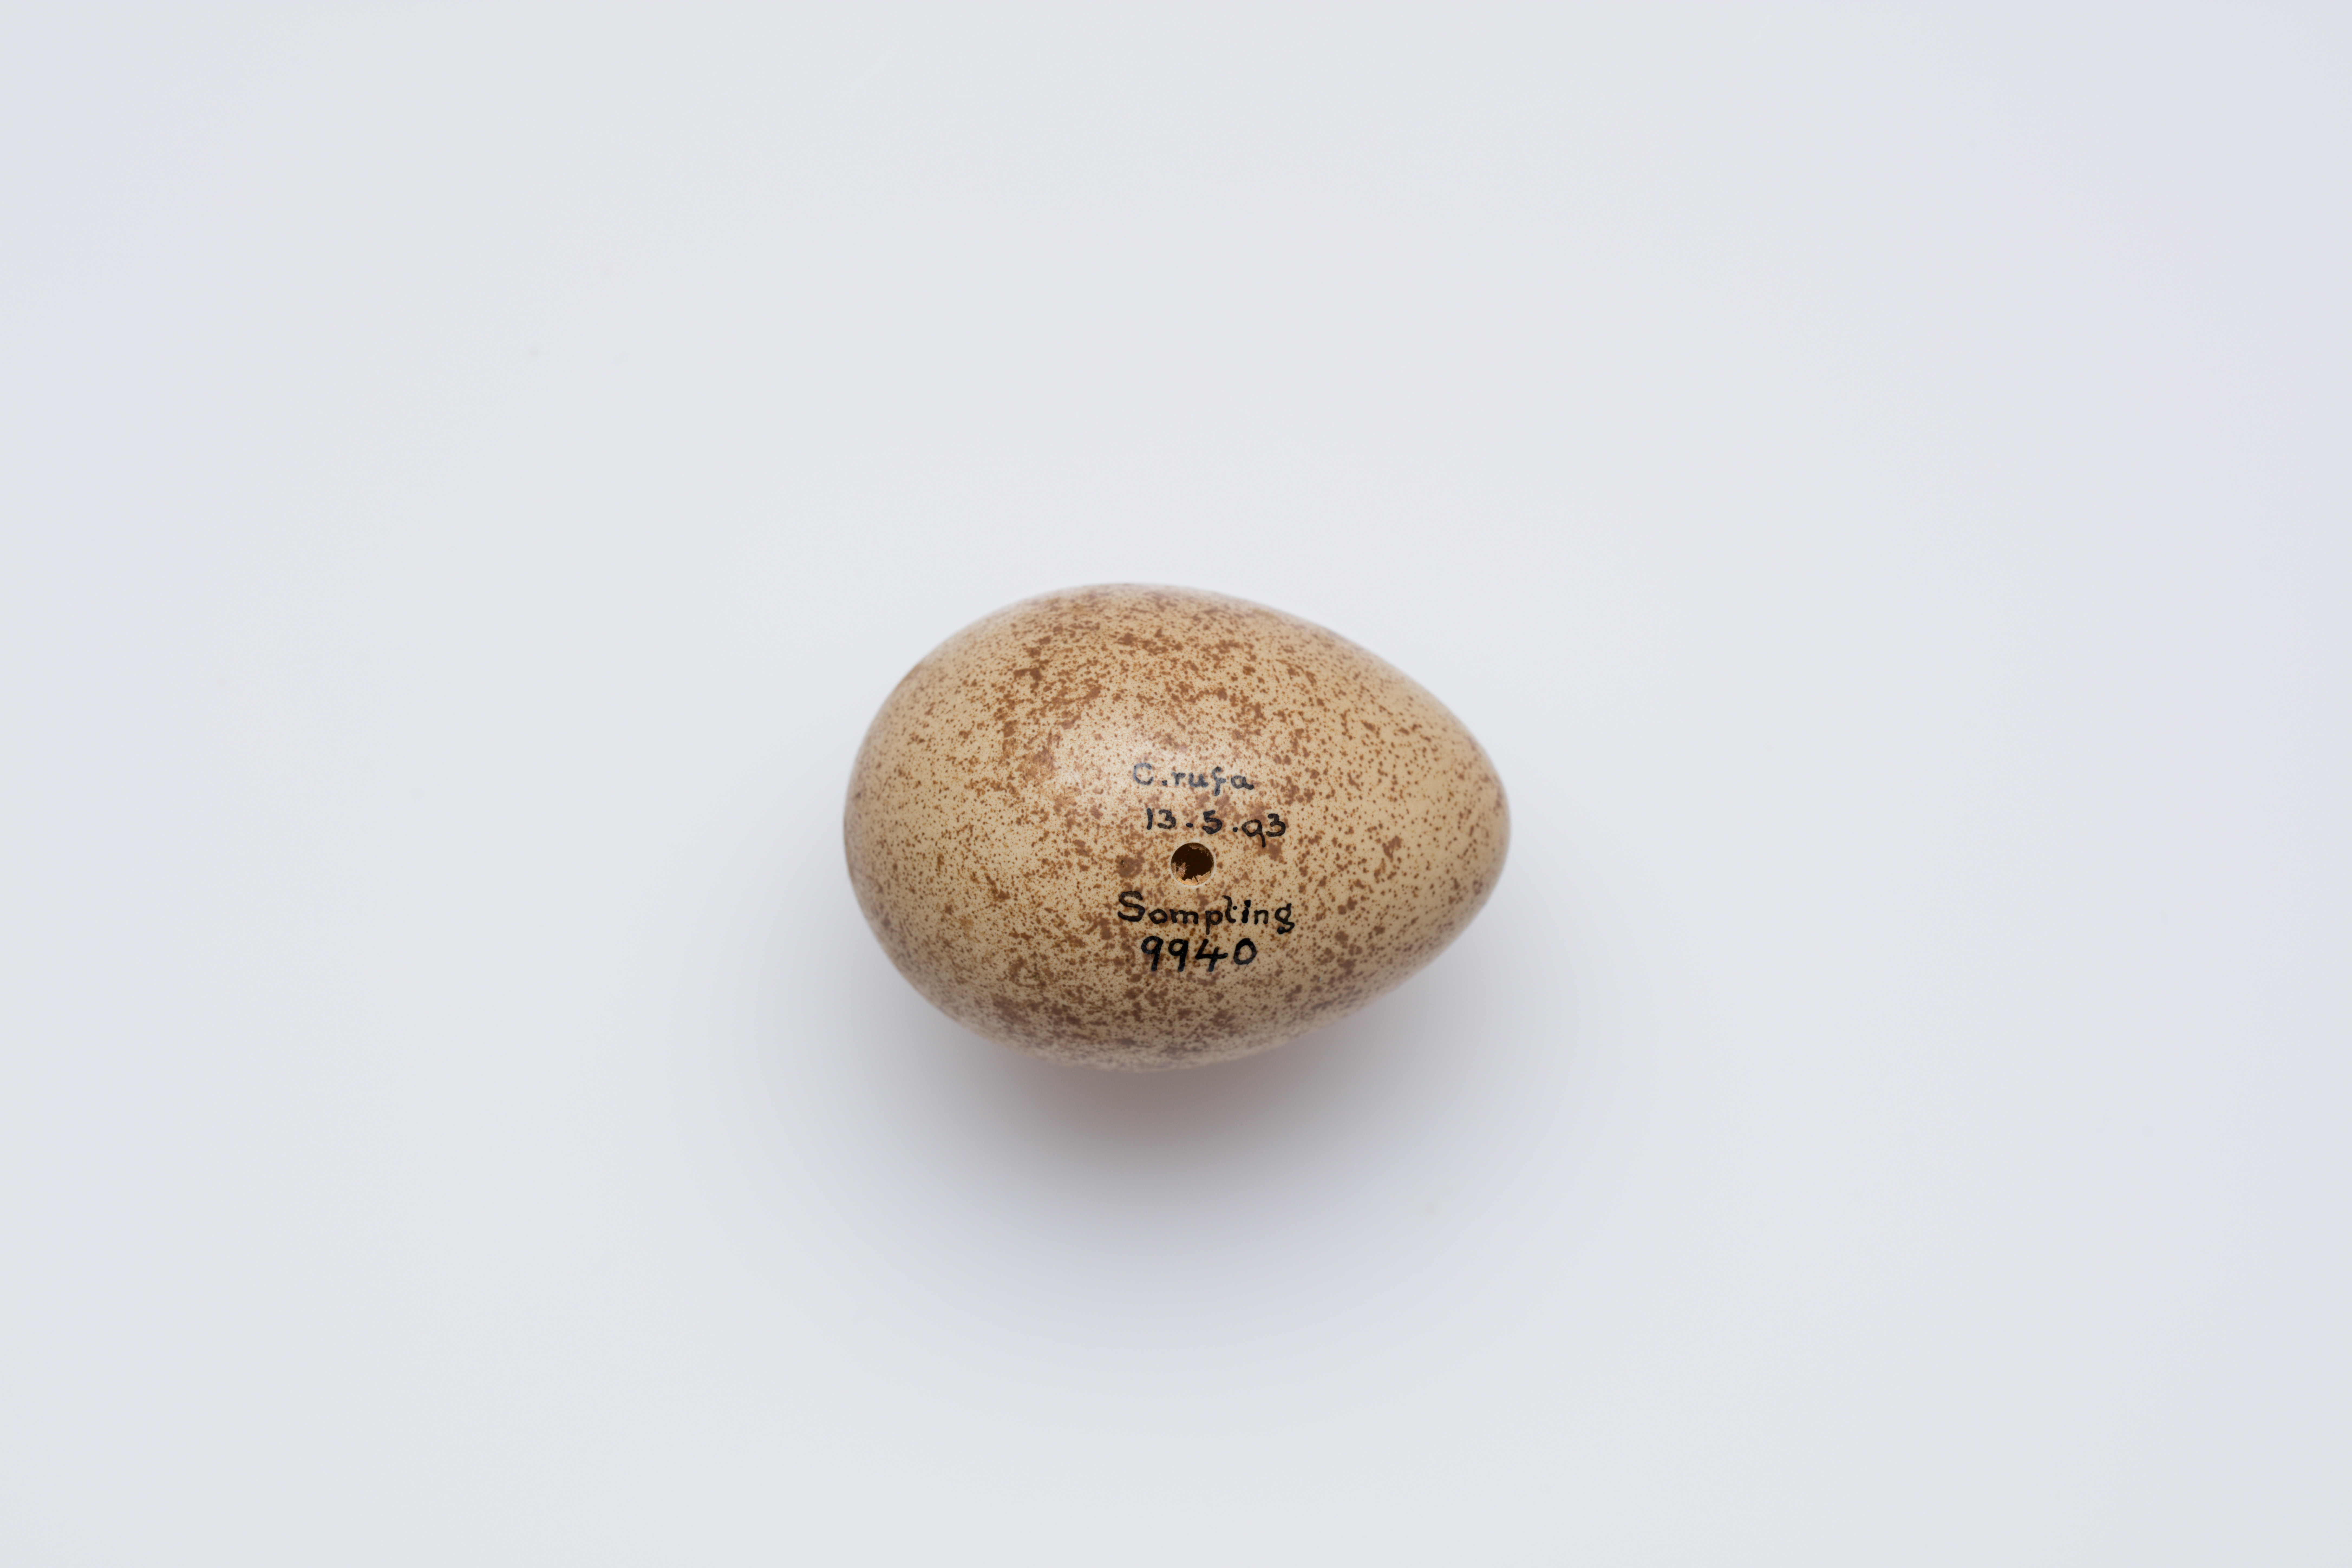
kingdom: Animalia
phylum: Chordata
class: Aves
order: Galliformes
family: Phasianidae
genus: Alectoris
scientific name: Alectoris rufa
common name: Red-legged partridge
